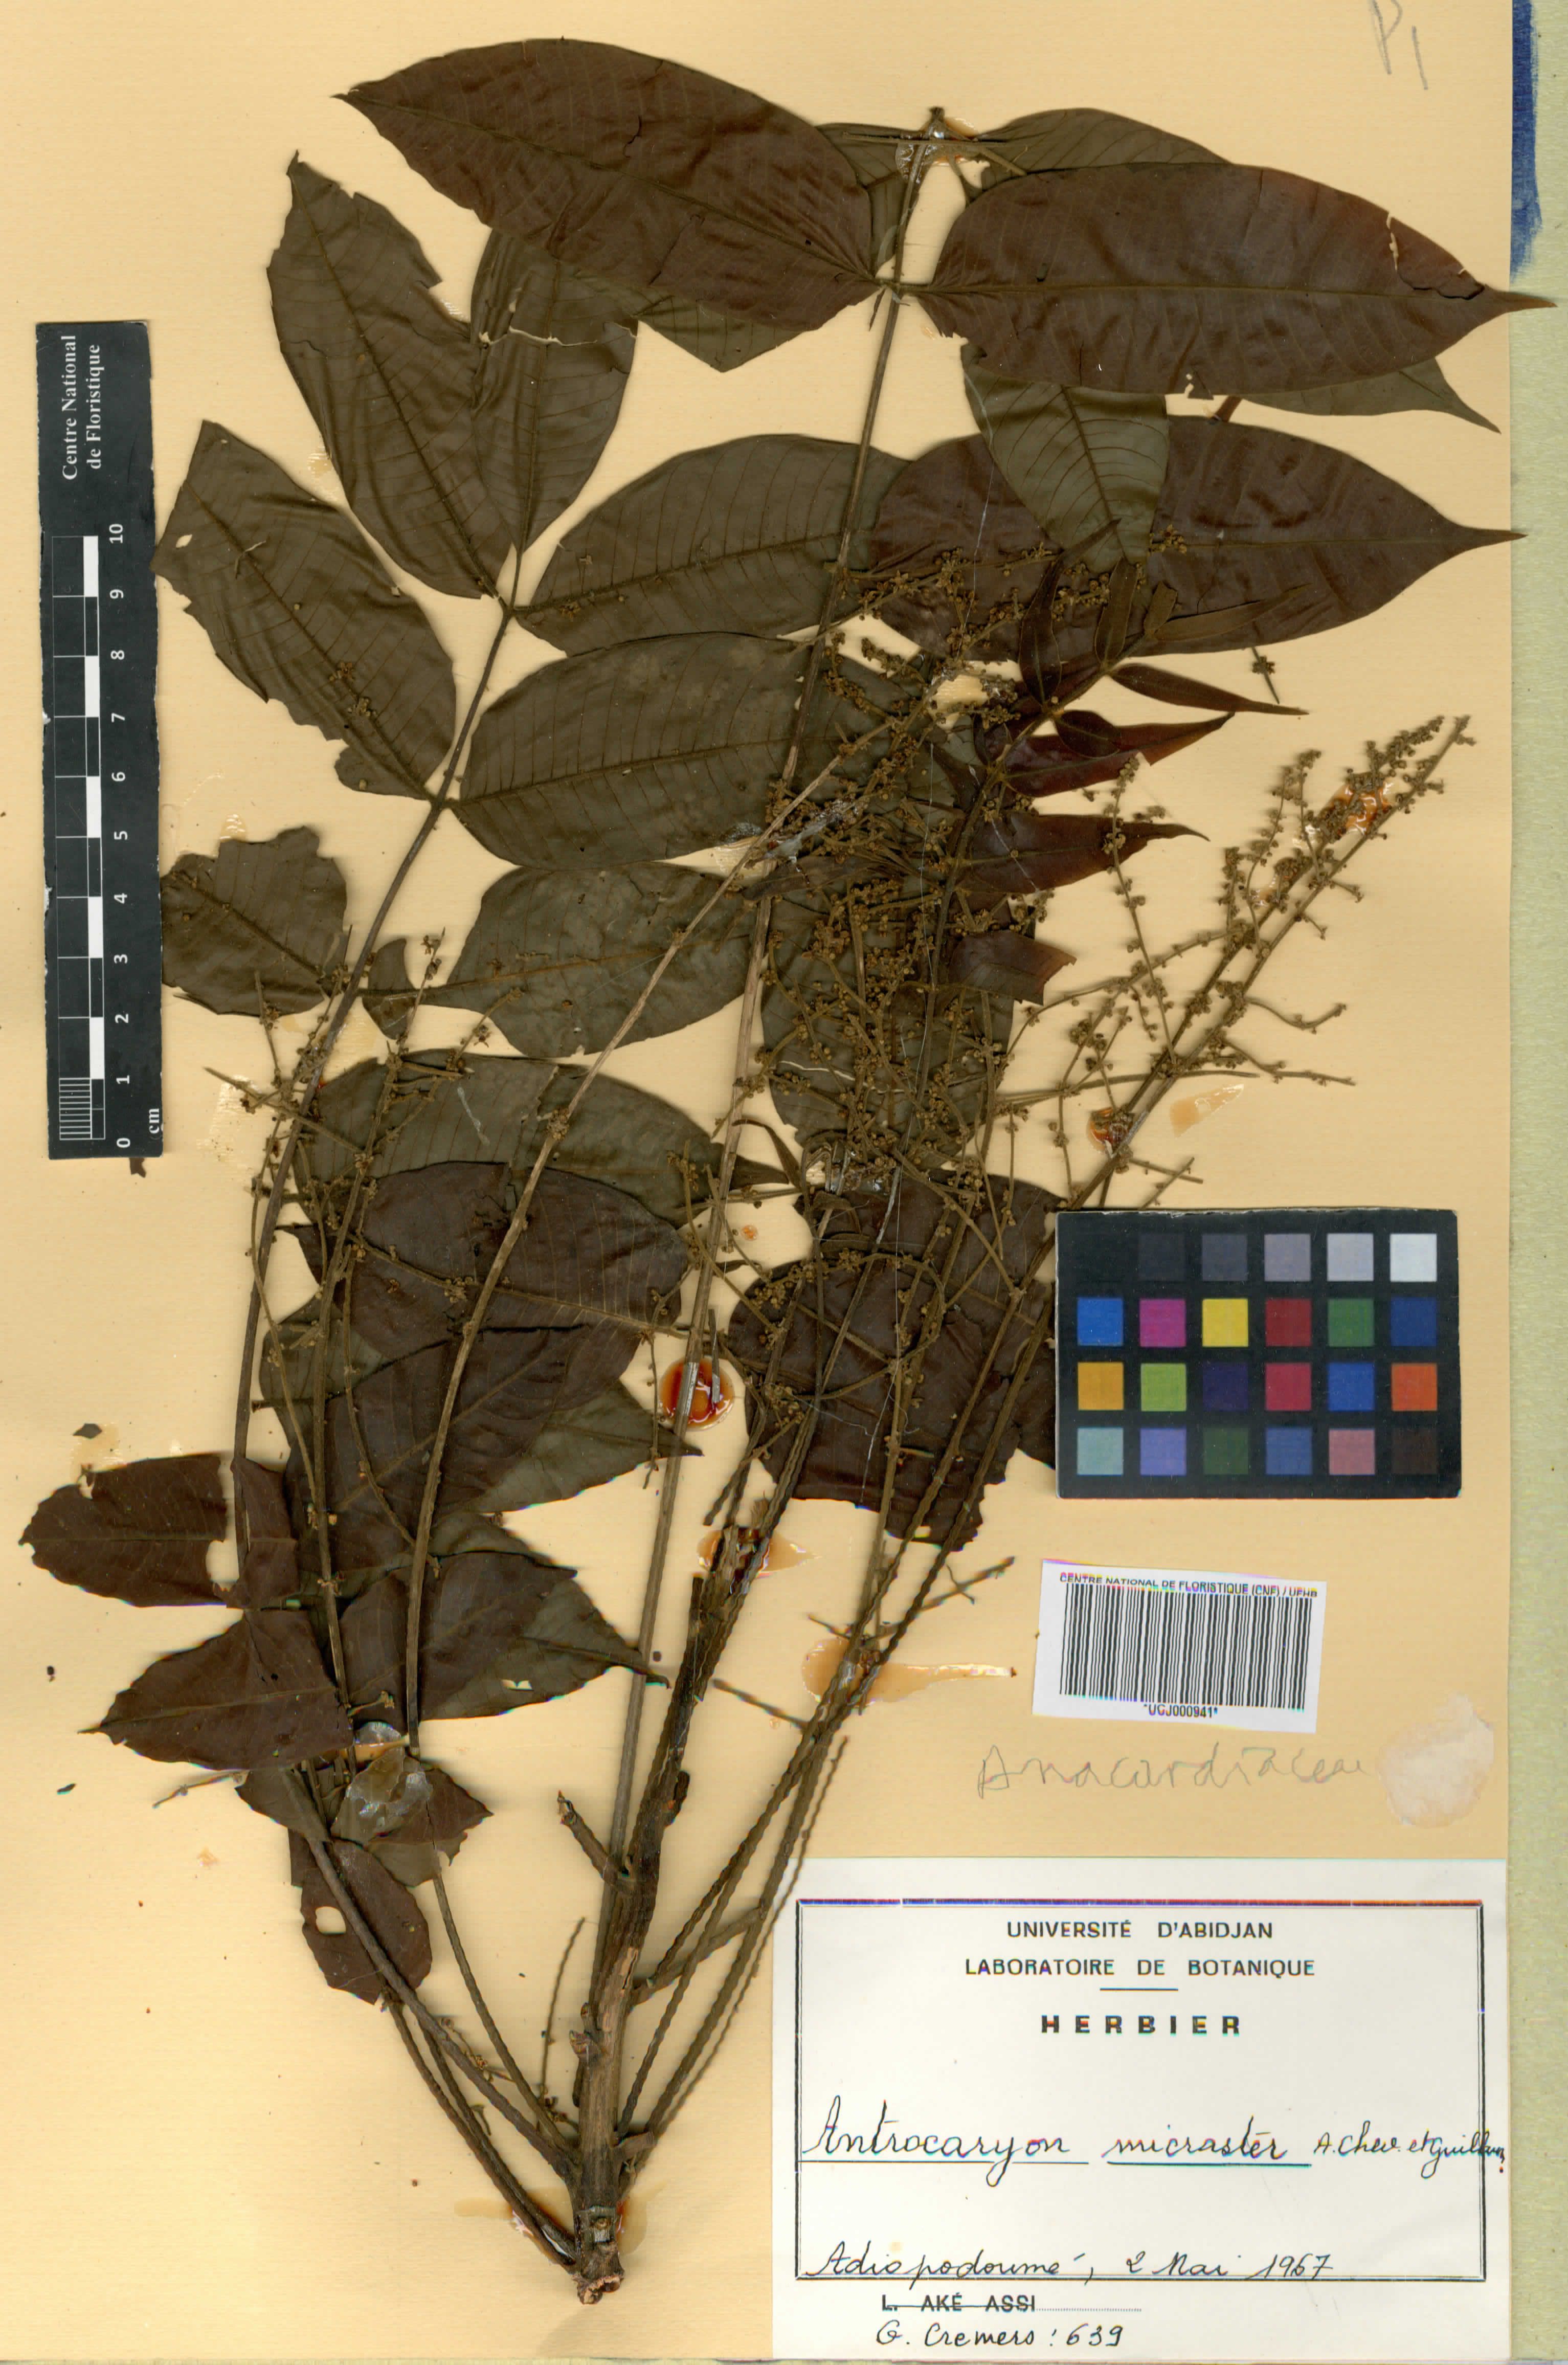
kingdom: Plantae
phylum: Tracheophyta
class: Magnoliopsida
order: Sapindales
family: Anacardiaceae
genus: Antrocaryon
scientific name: Antrocaryon micraster
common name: Antrocaryon
